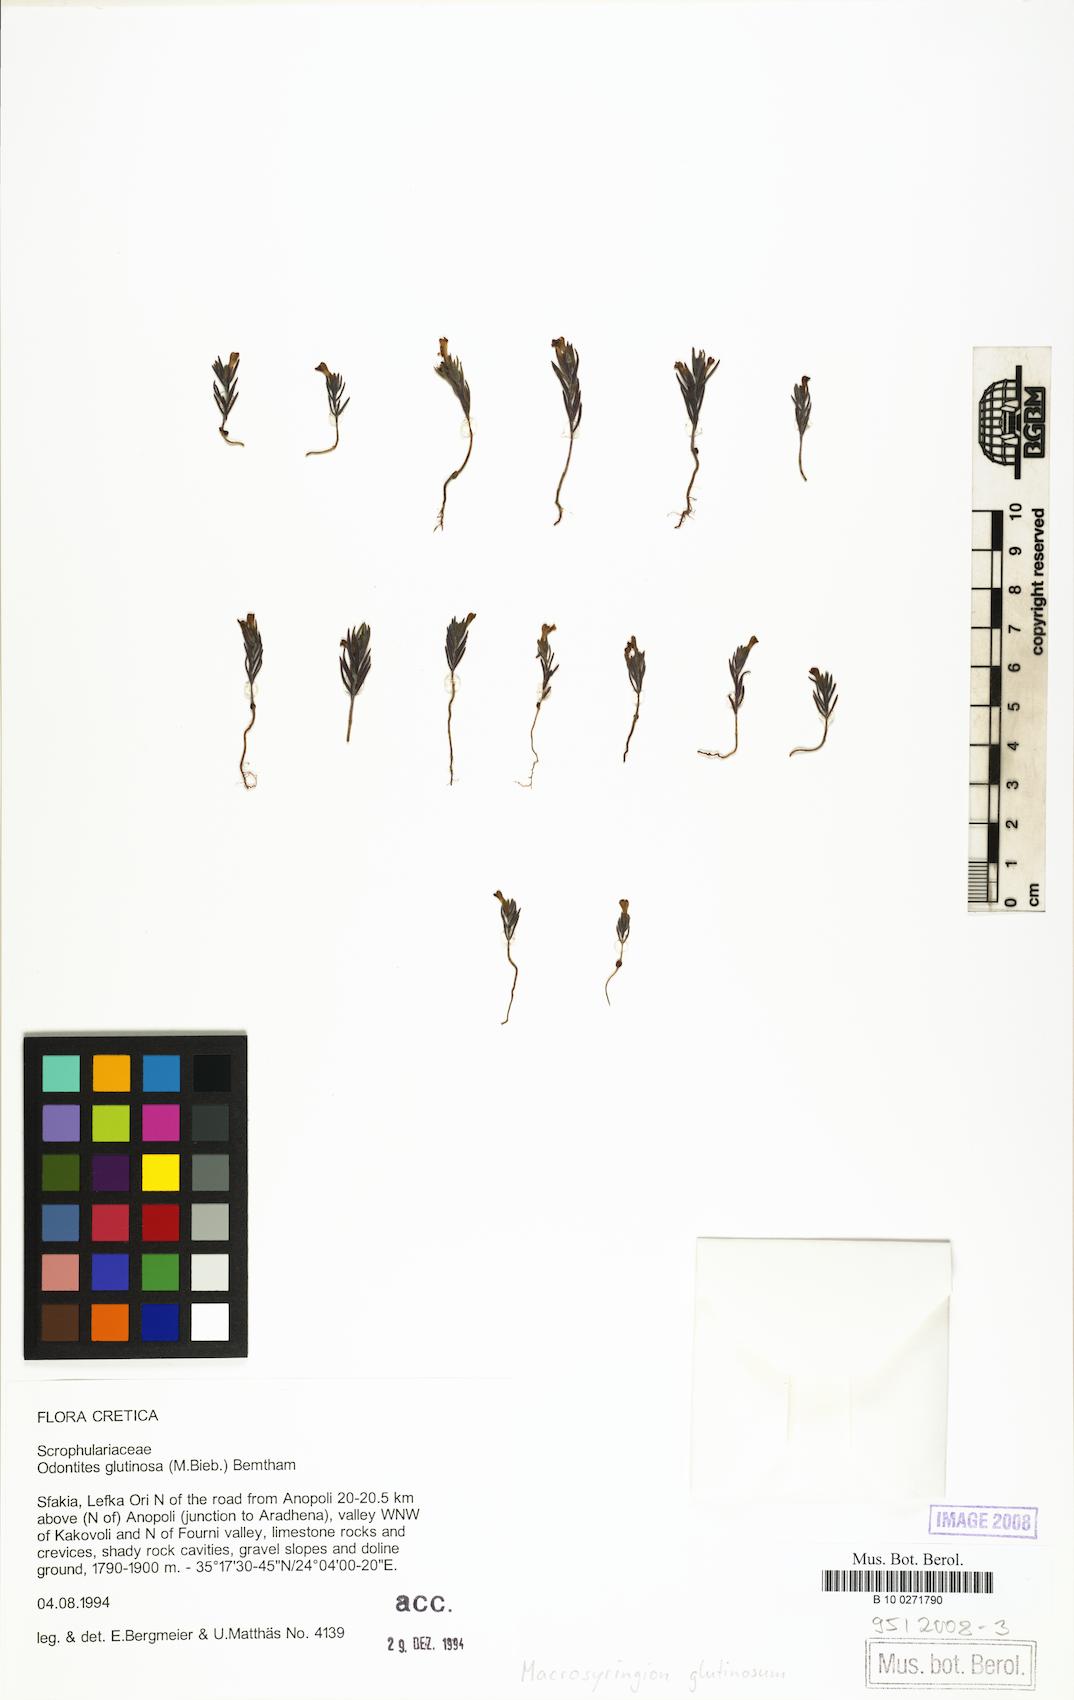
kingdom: Plantae
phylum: Tracheophyta
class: Magnoliopsida
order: Lamiales
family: Orobanchaceae
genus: Odontites
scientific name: Odontites glutinosus
